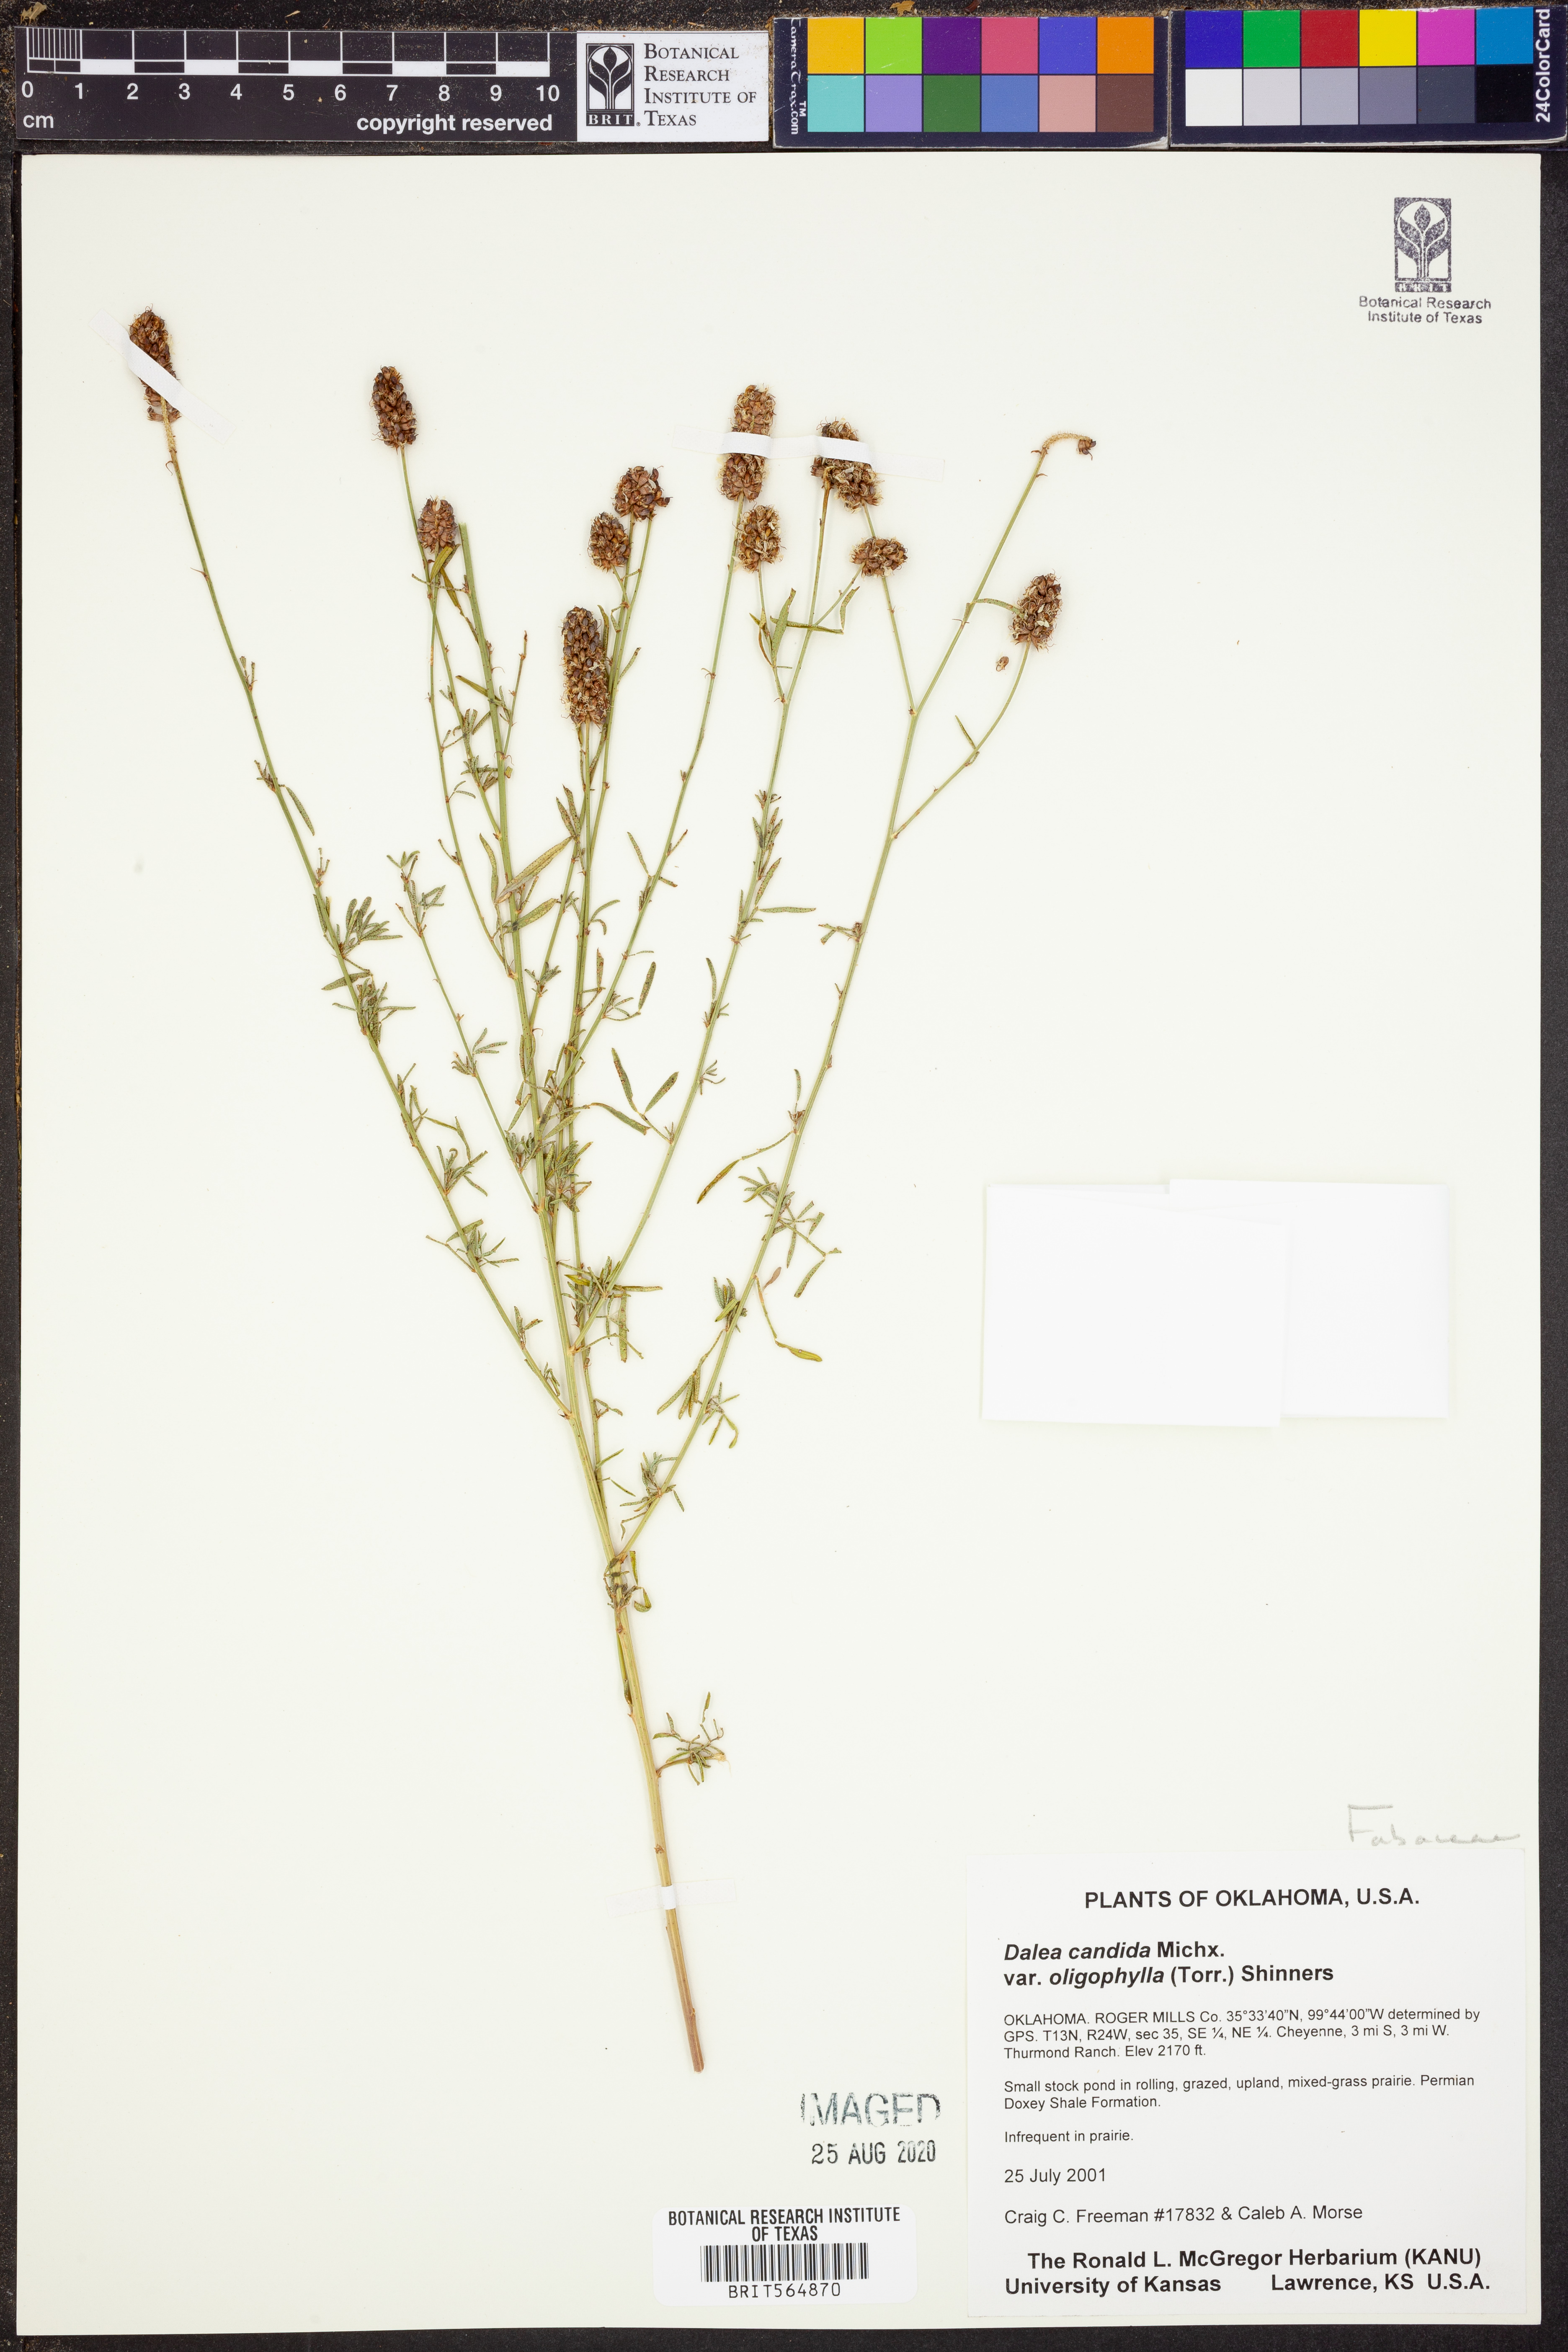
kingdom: Plantae
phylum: Tracheophyta
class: Magnoliopsida
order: Fabales
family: Fabaceae
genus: Dalea
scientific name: Dalea candida
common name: White prairie-clover
